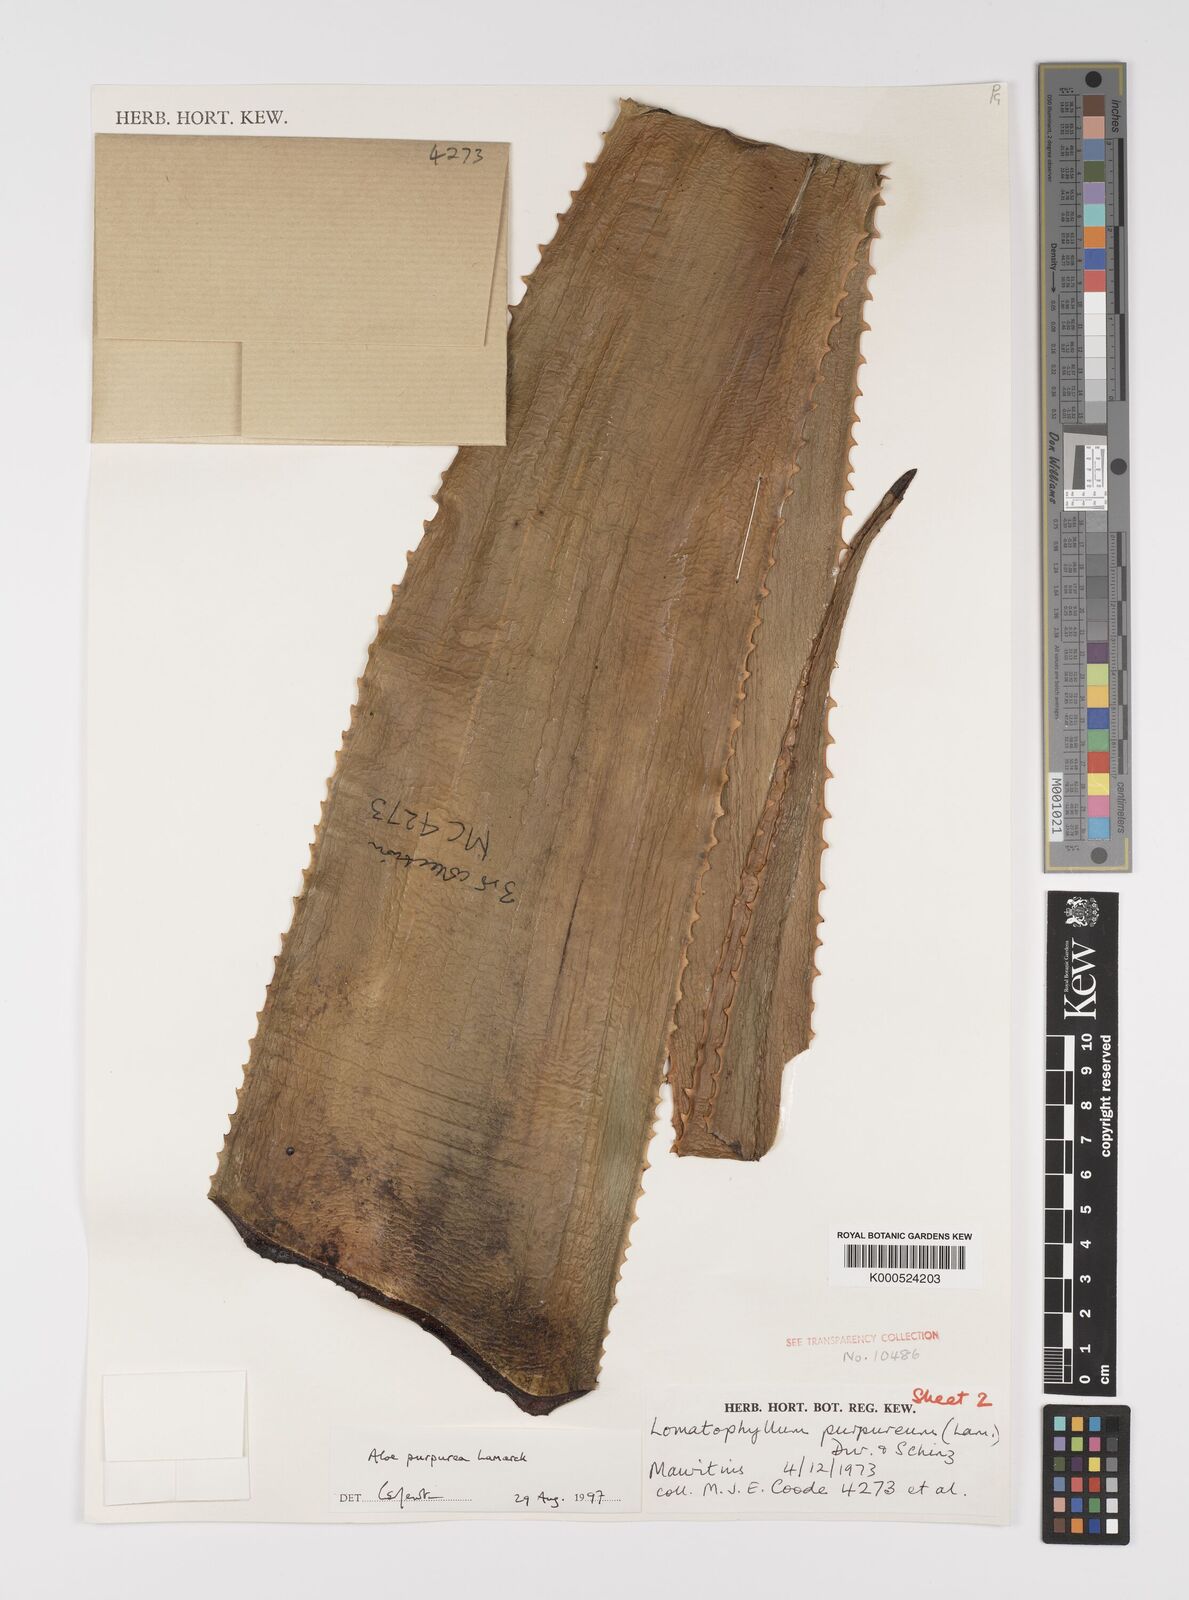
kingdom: Plantae
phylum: Tracheophyta
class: Liliopsida
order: Asparagales
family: Asphodelaceae
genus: Aloe
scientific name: Aloe purpurea
